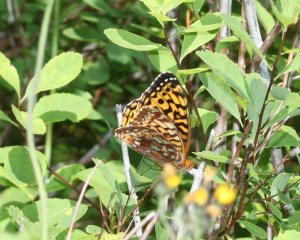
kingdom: Animalia
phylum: Arthropoda
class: Insecta
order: Lepidoptera
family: Nymphalidae
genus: Speyeria
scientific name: Speyeria cybele
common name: Great Spangled Fritillary
